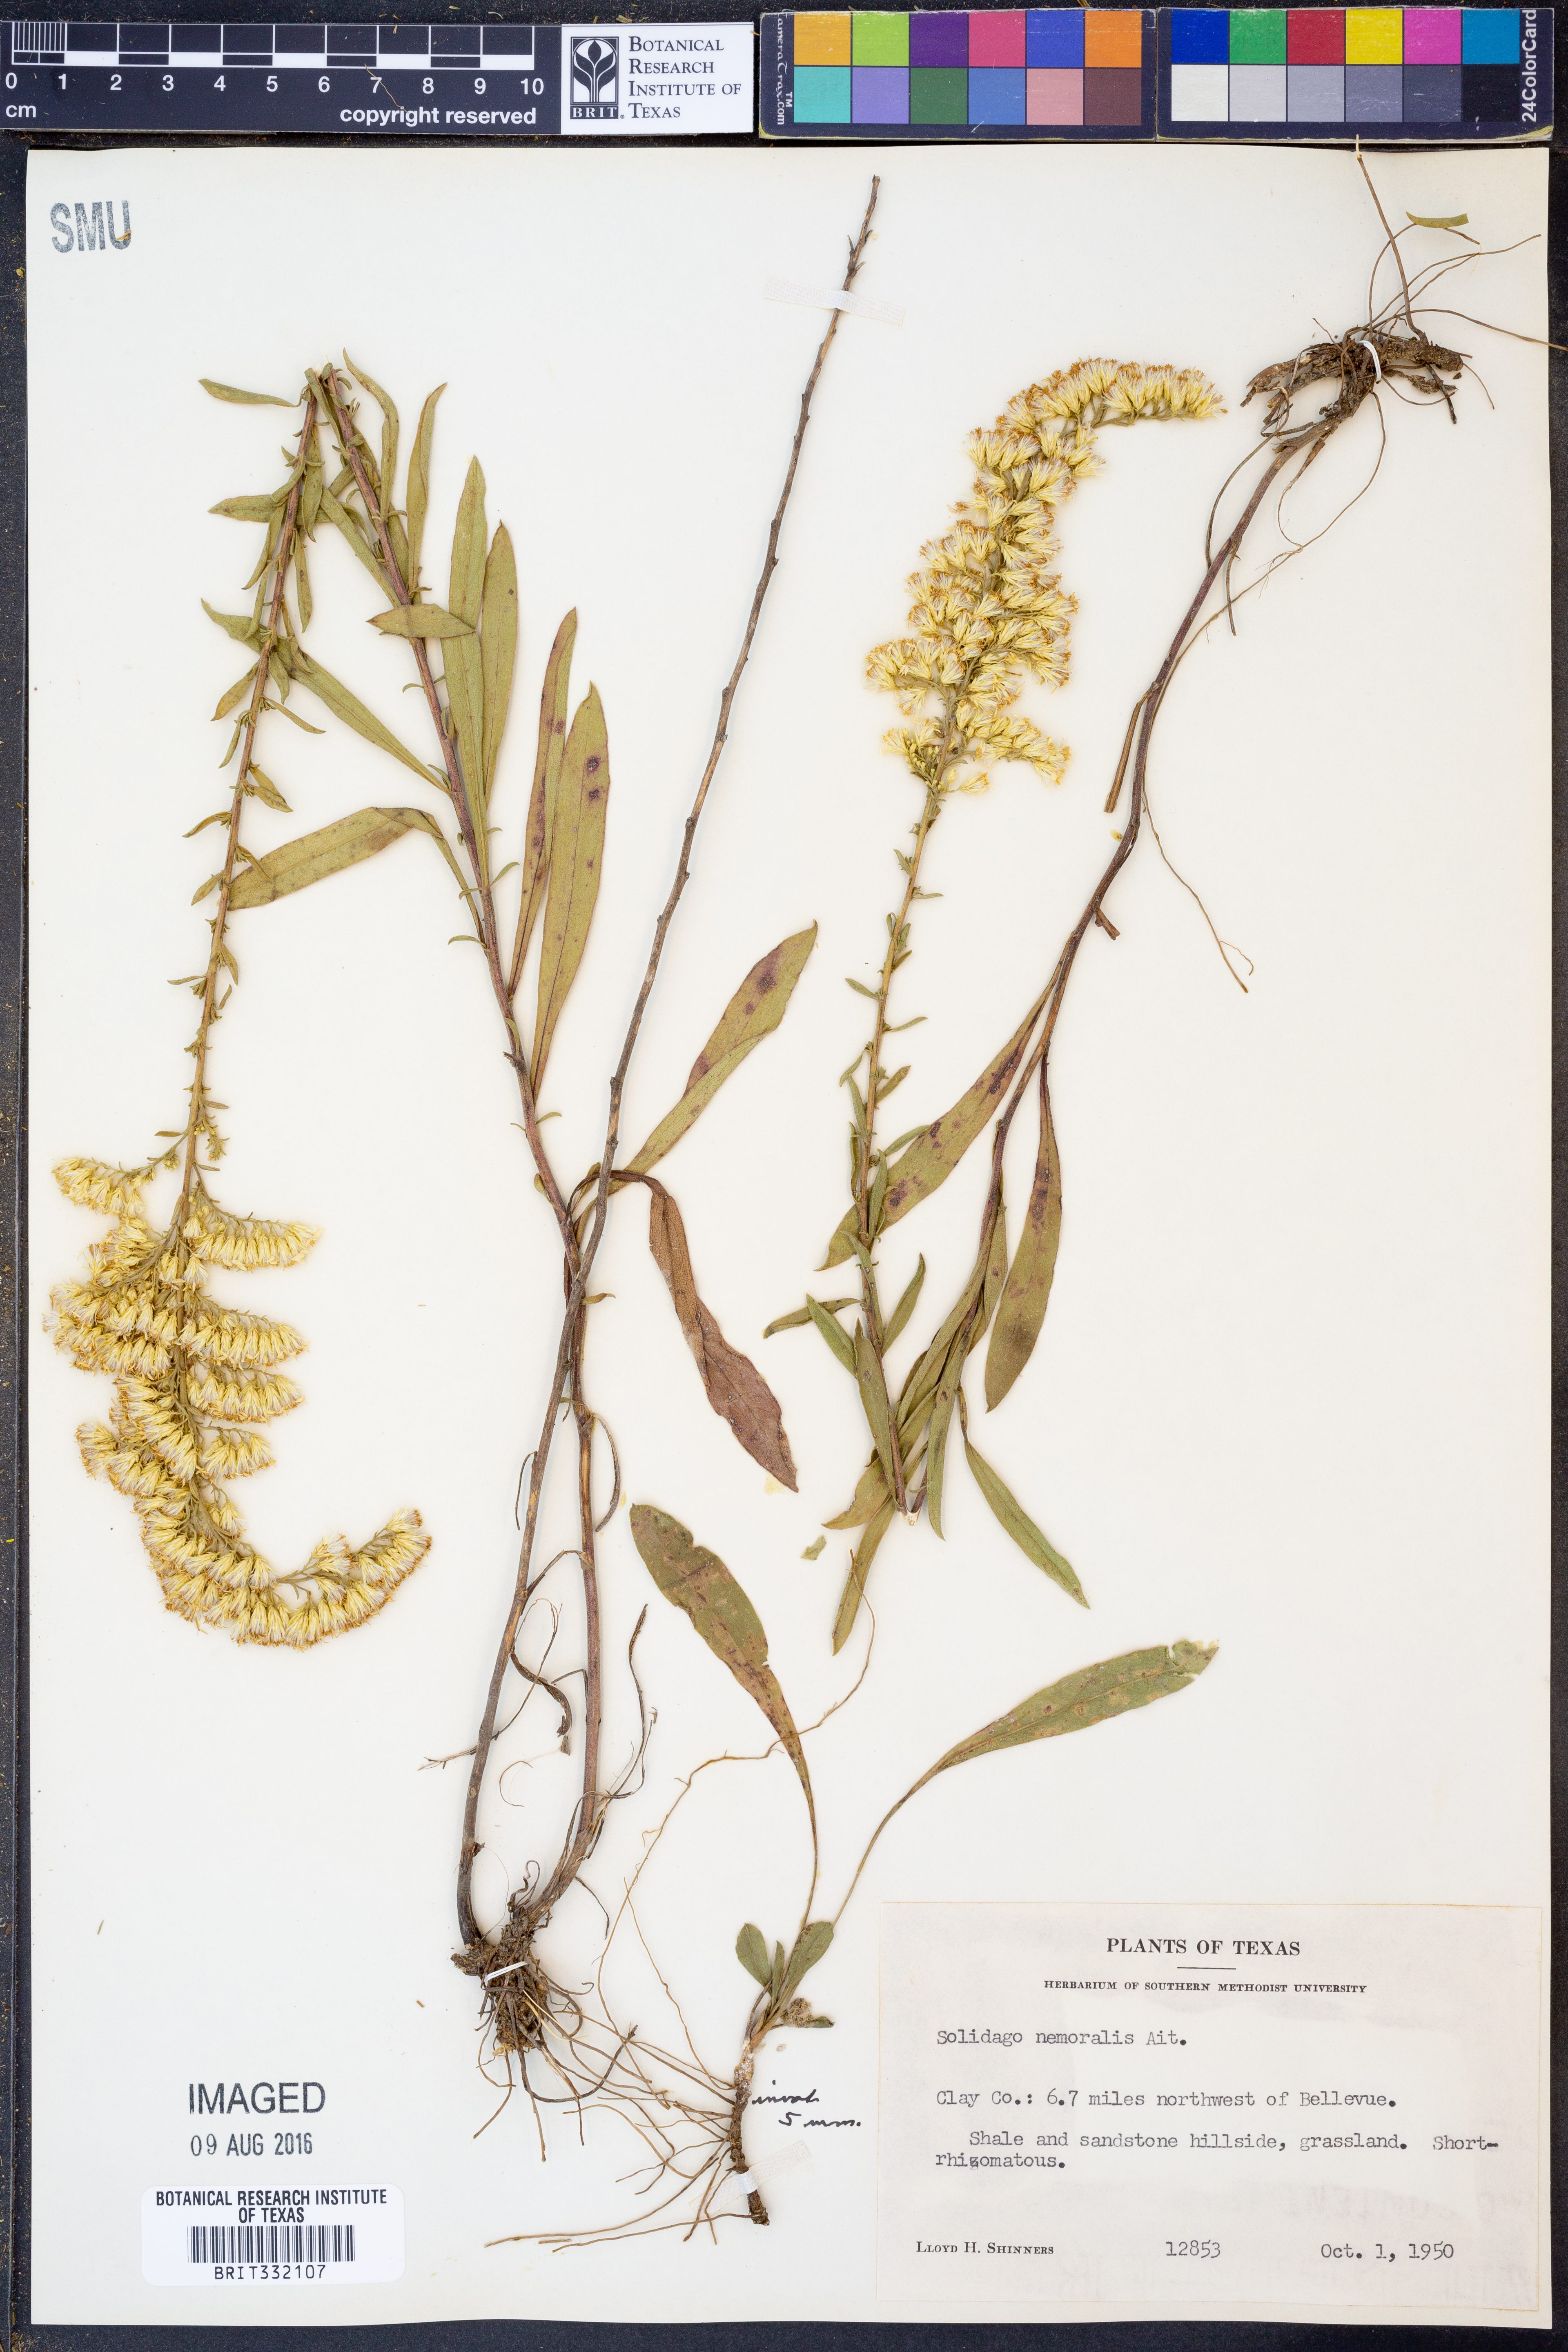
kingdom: Plantae
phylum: Tracheophyta
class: Magnoliopsida
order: Asterales
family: Asteraceae
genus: Solidago
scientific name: Solidago nemoralis
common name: Grey goldenrod
